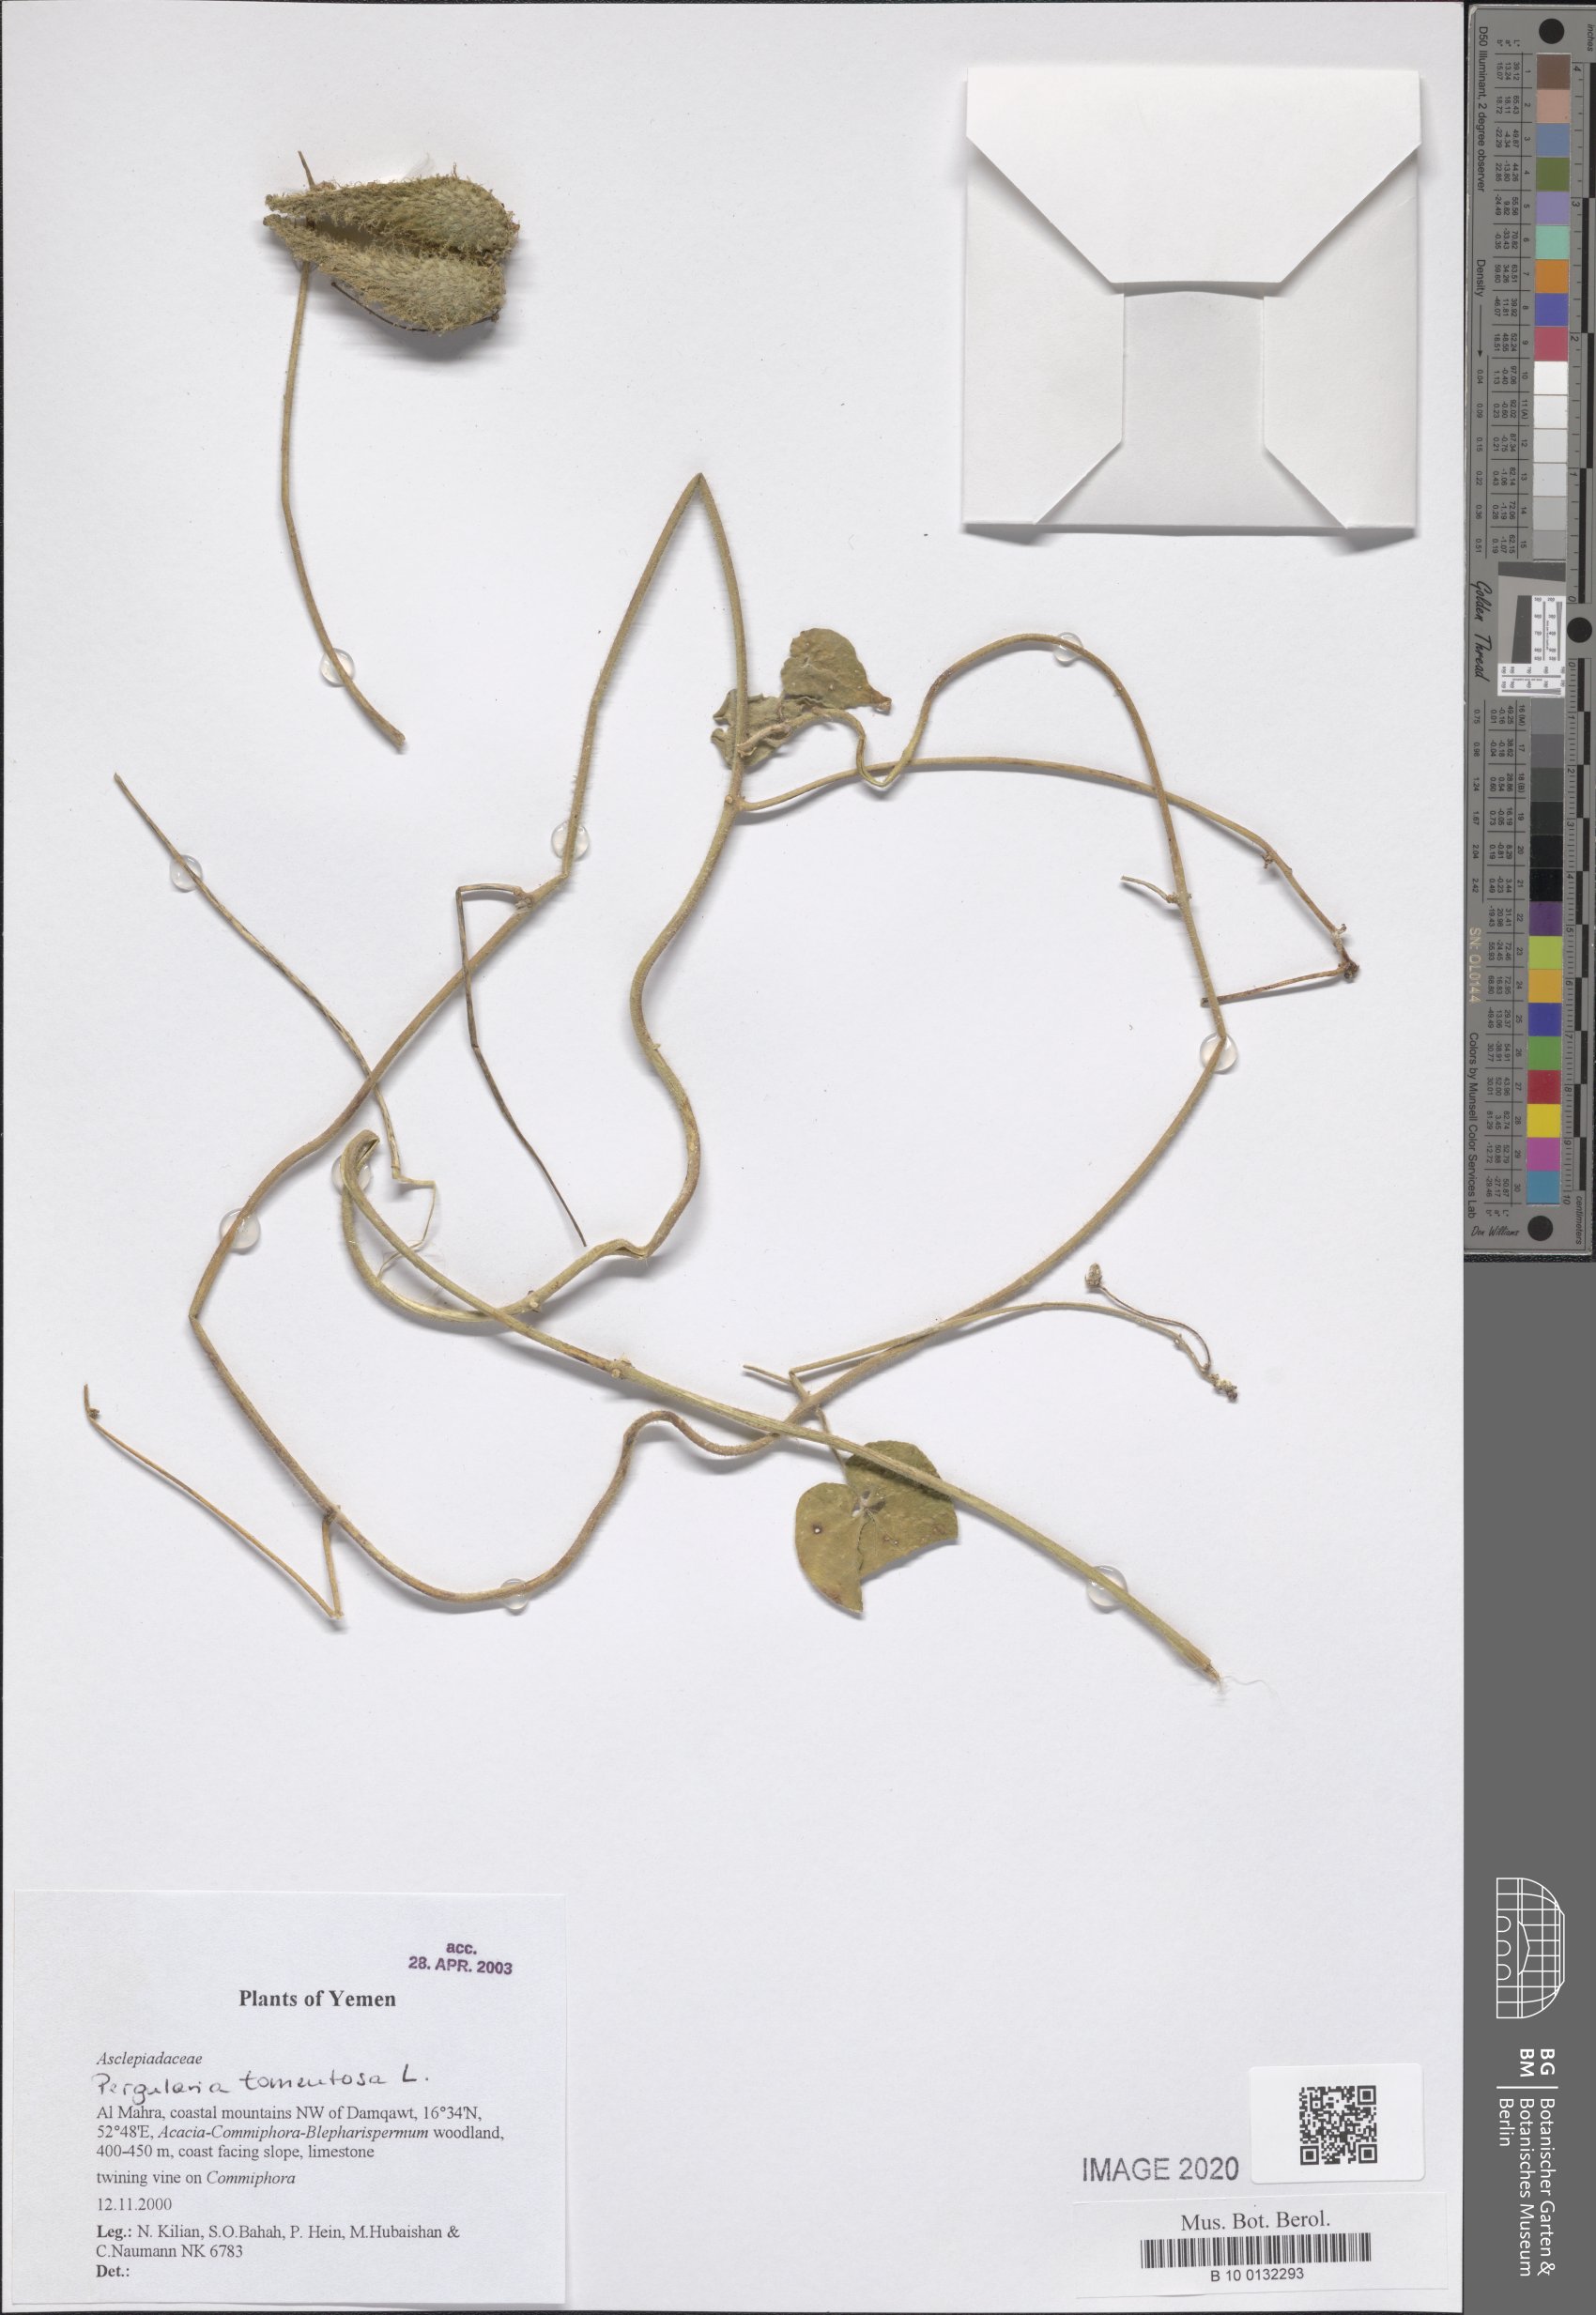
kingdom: Plantae
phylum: Tracheophyta
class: Magnoliopsida
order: Gentianales
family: Apocynaceae
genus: Pergularia
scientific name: Pergularia tomentosa
